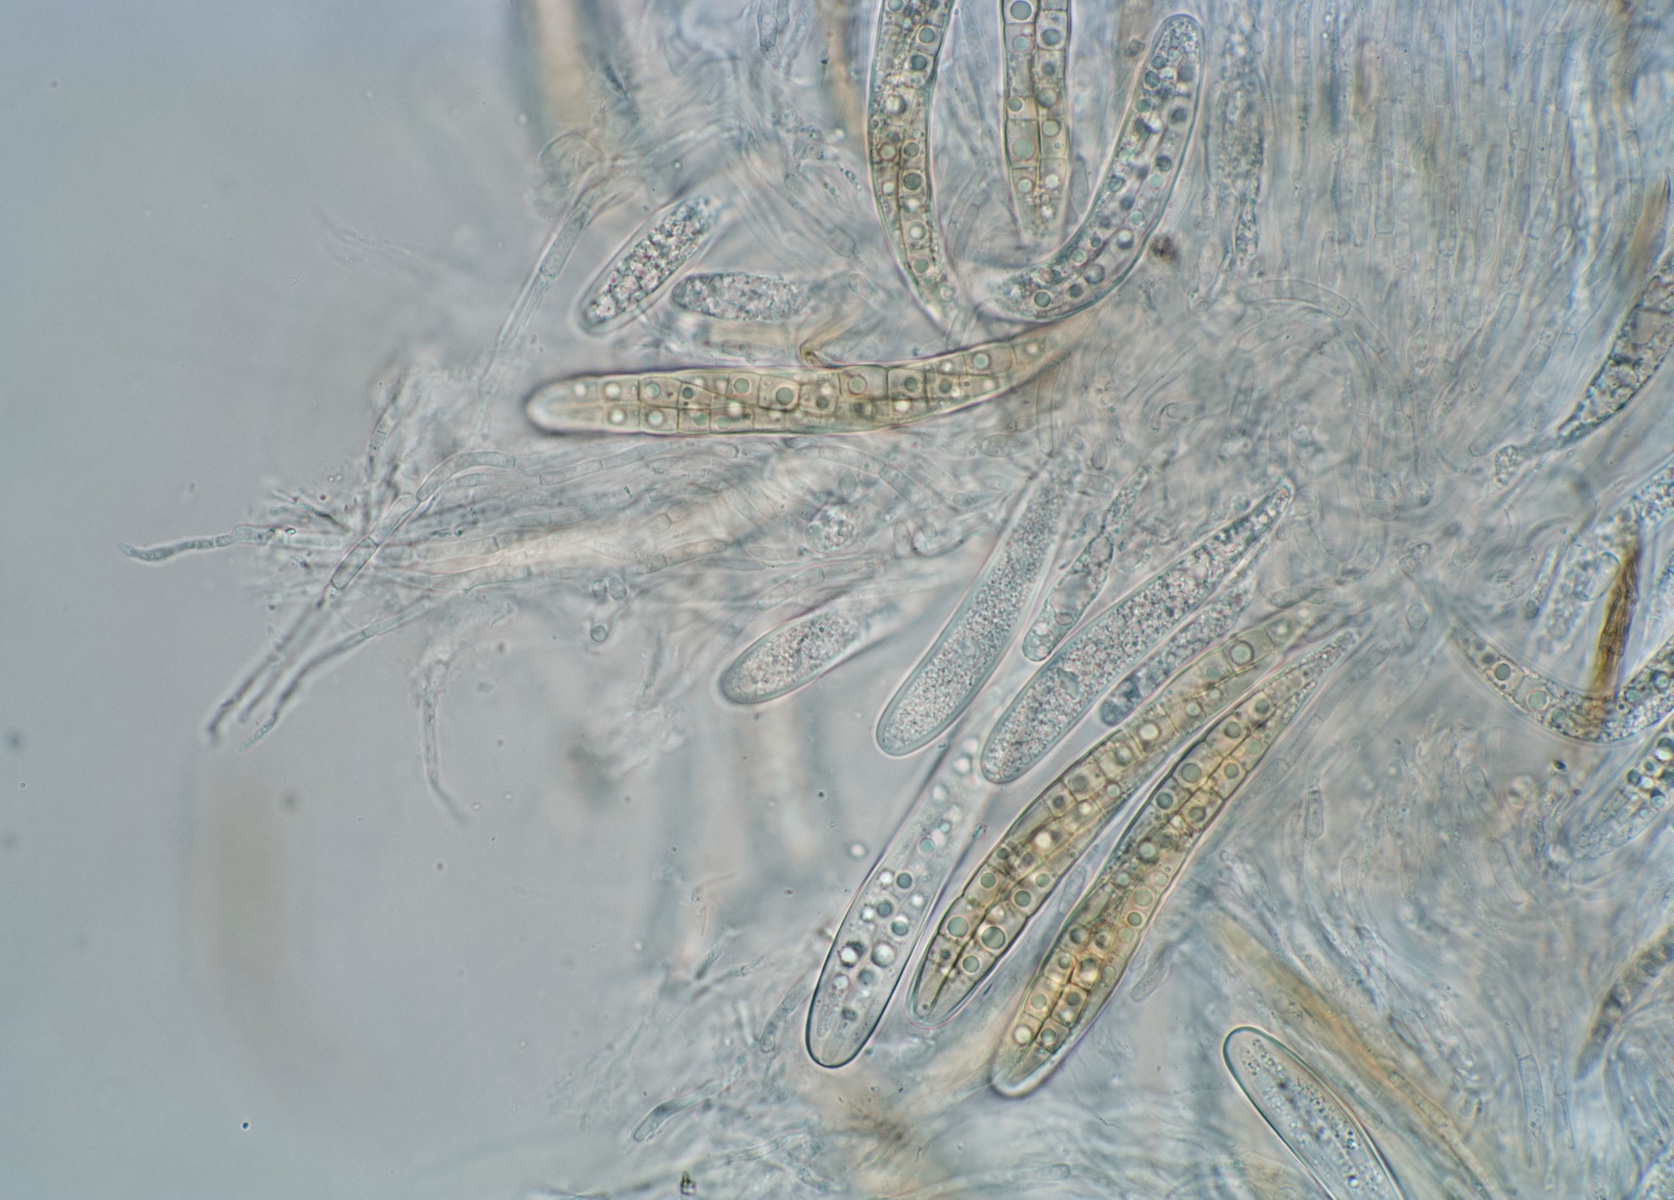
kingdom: Fungi
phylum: Ascomycota
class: Dothideomycetes
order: Pleosporales
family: Phaeosphaeriaceae
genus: Phaeosphaeria
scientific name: Phaeosphaeria sowerbyi
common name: kål-kulkegle
